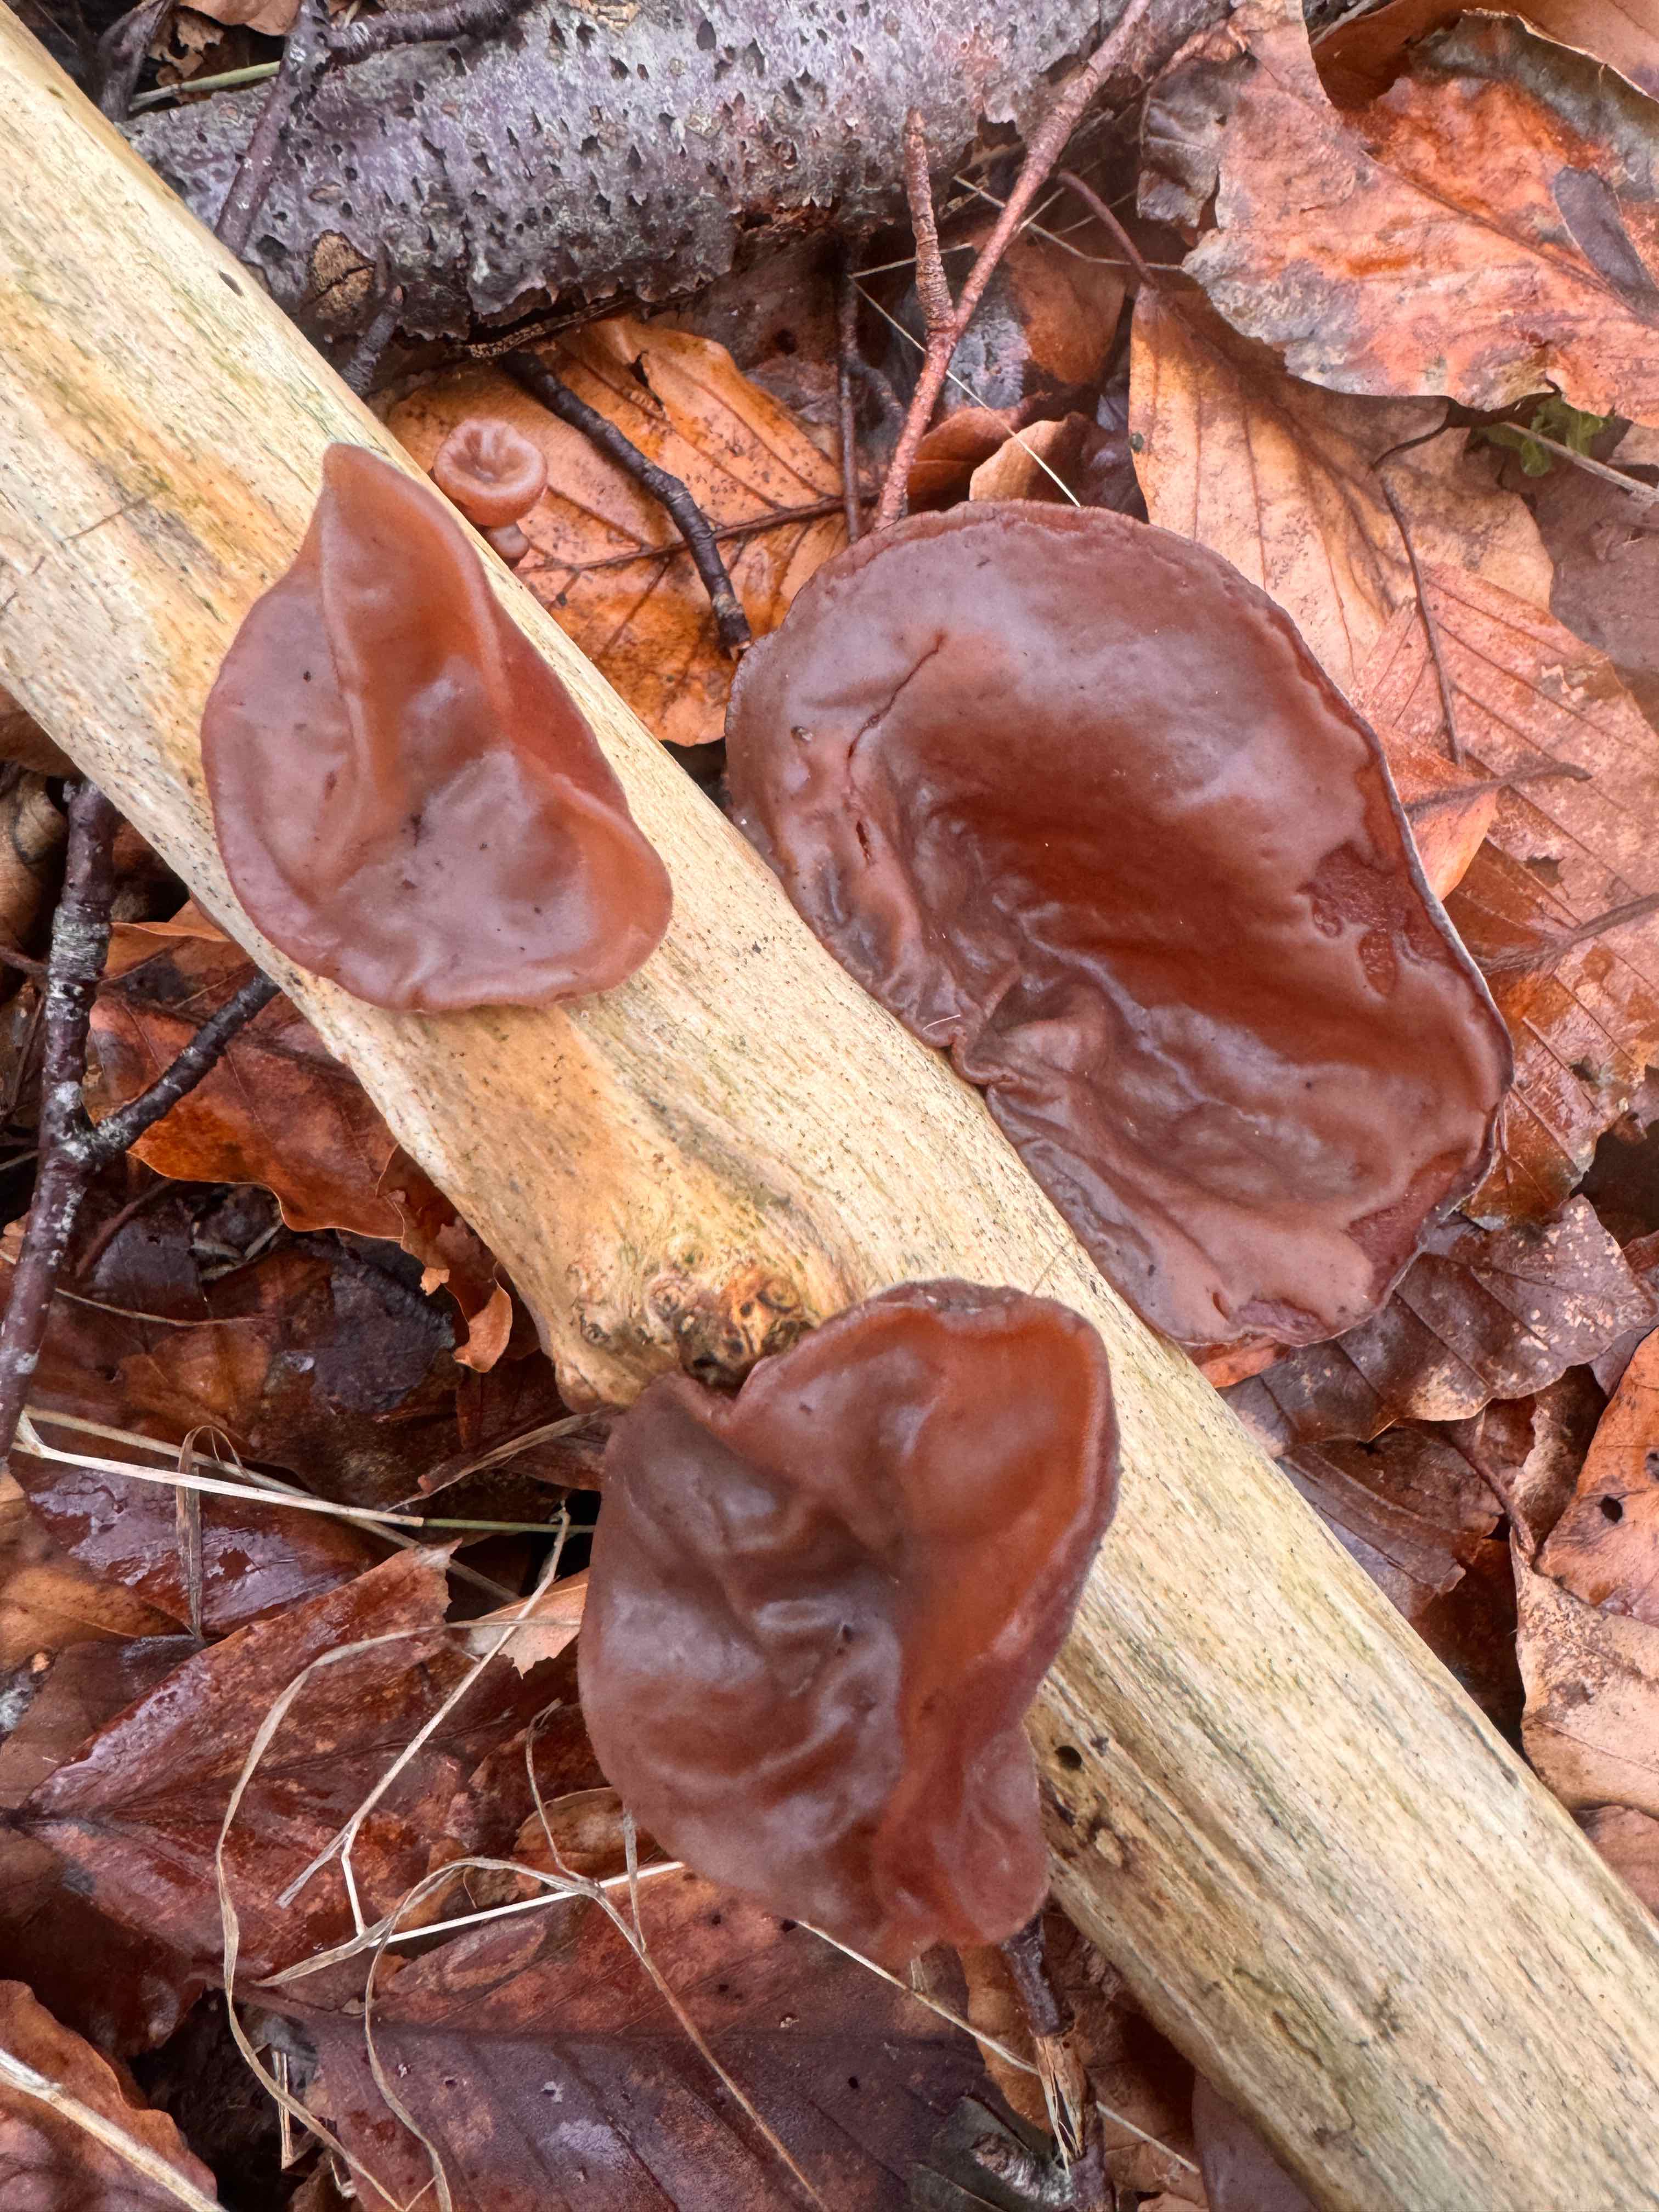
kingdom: Fungi
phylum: Basidiomycota
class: Agaricomycetes
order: Auriculariales
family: Auriculariaceae
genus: Auricularia
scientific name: Auricularia auricula-judae
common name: almindelig judasøre
